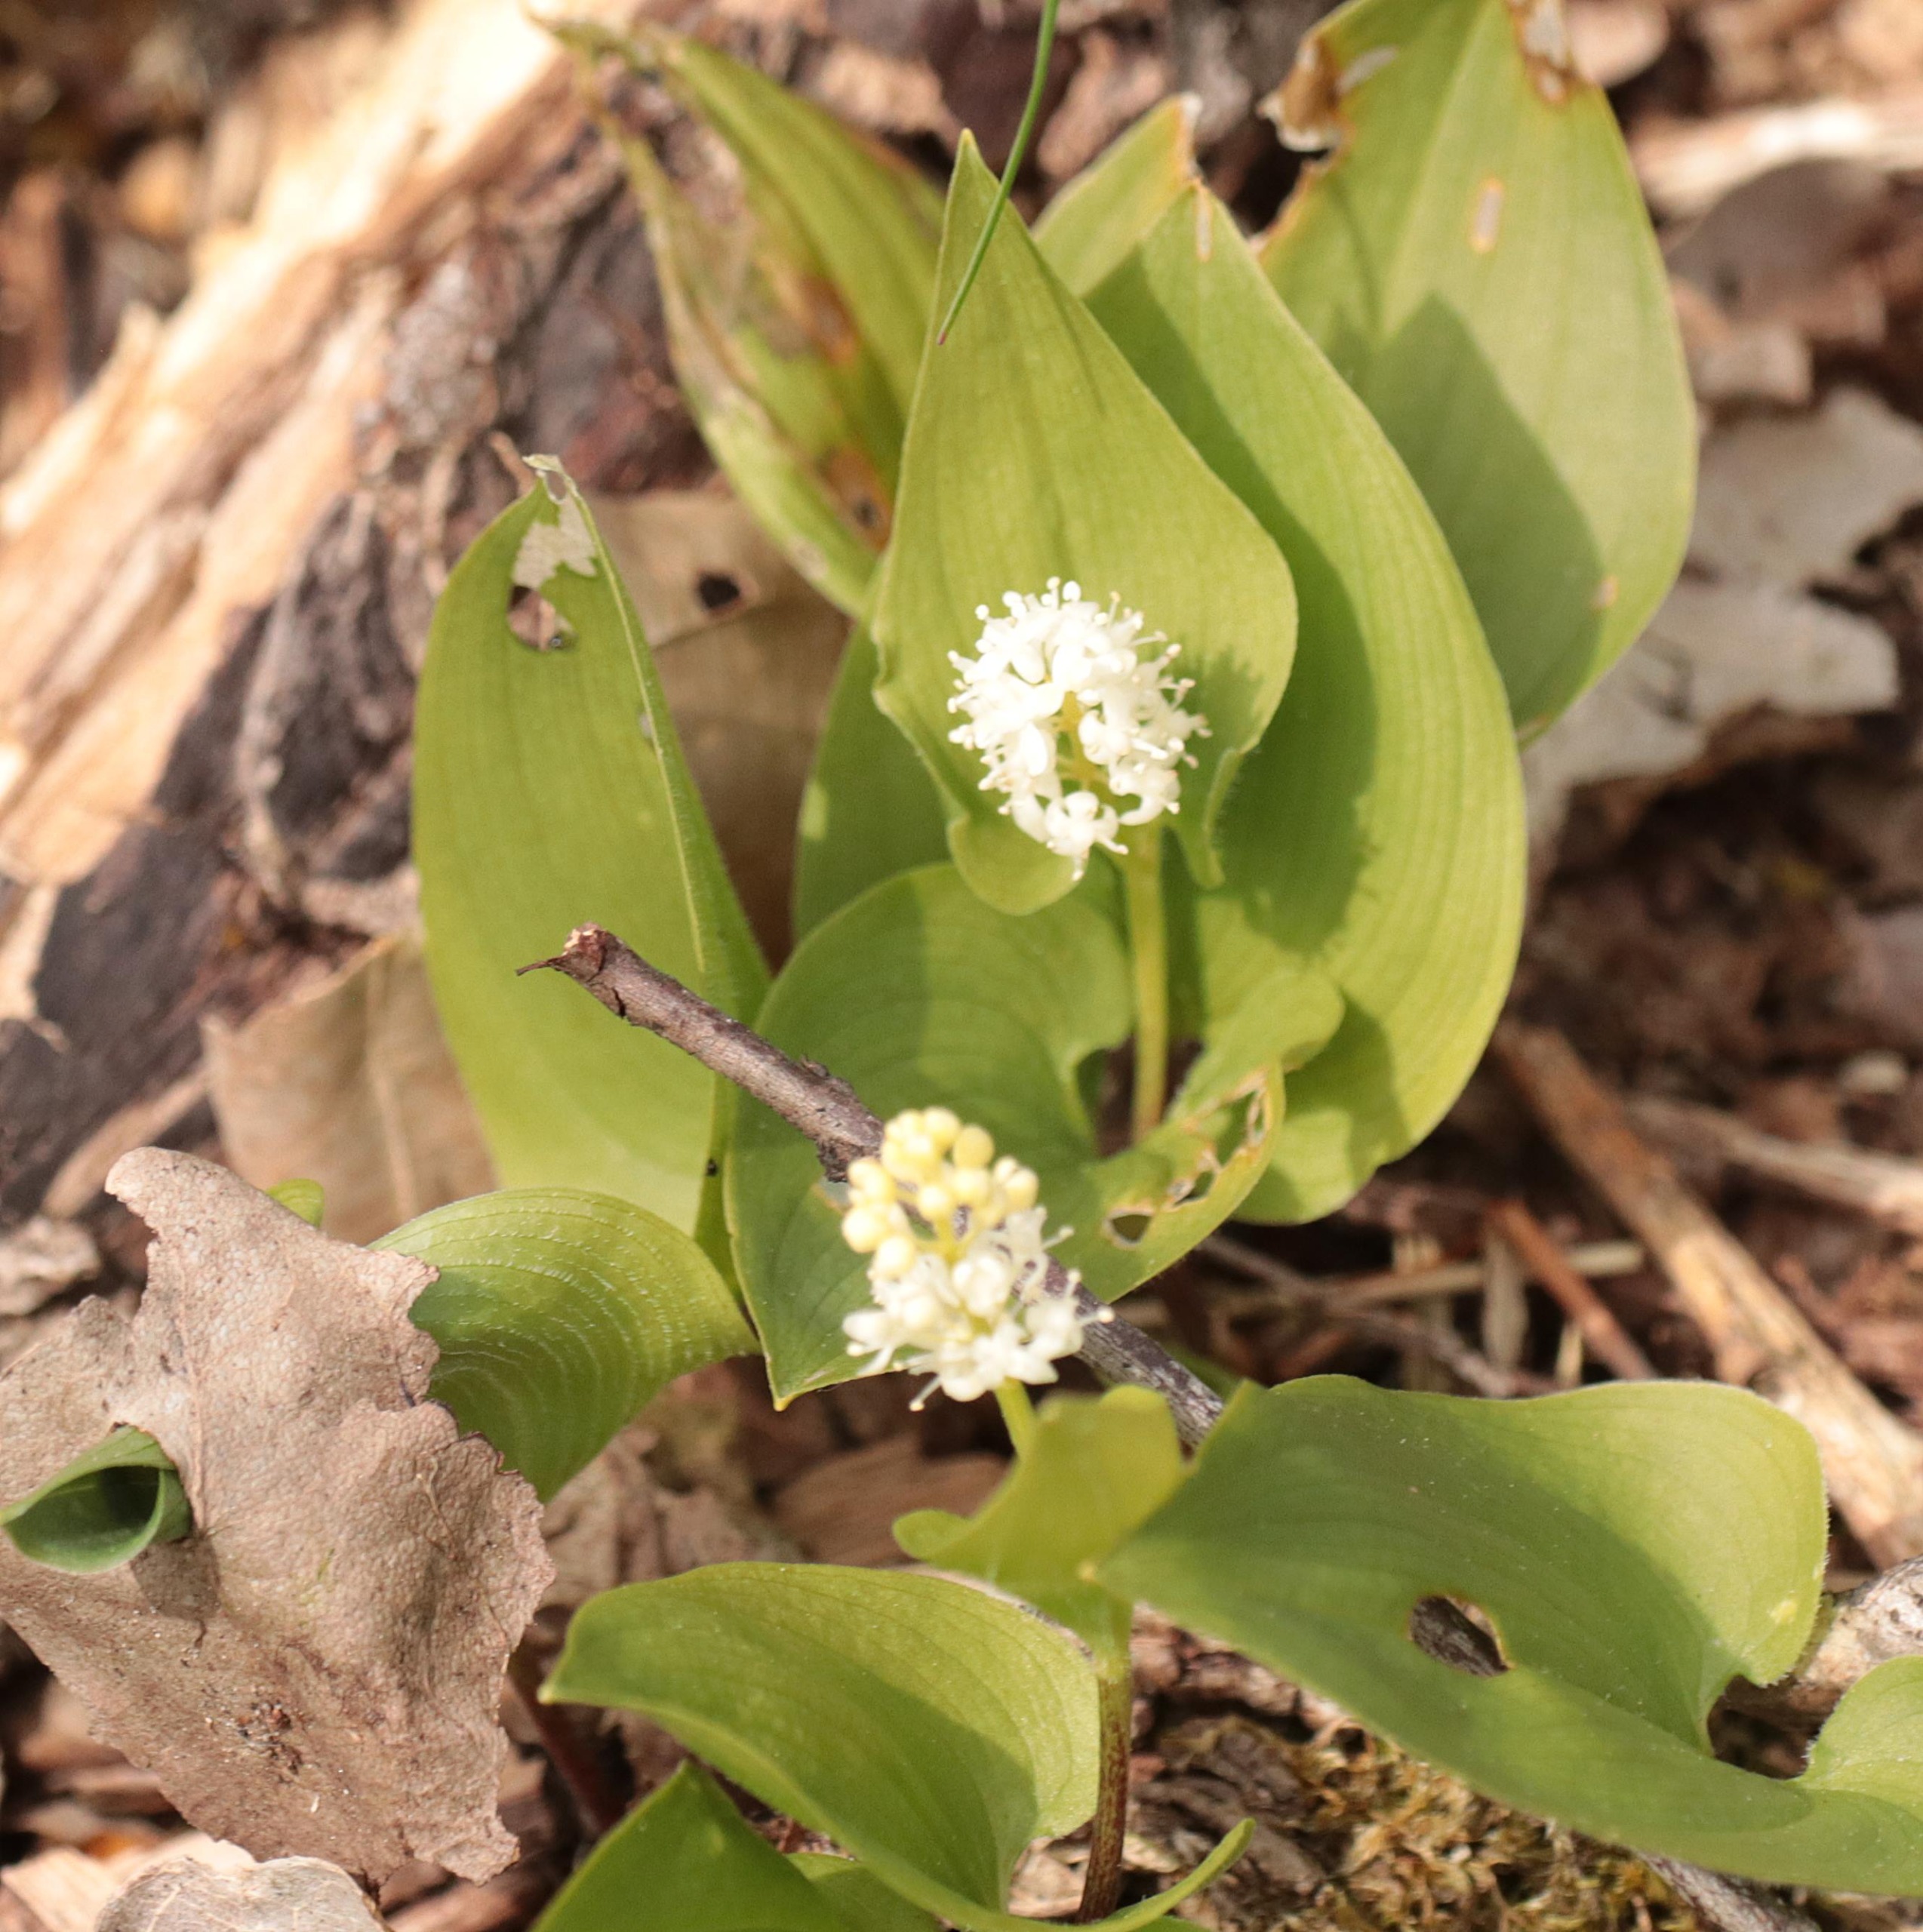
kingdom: Plantae
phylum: Tracheophyta
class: Liliopsida
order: Asparagales
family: Asparagaceae
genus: Maianthemum
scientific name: Maianthemum bifolium
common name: Majblomst
